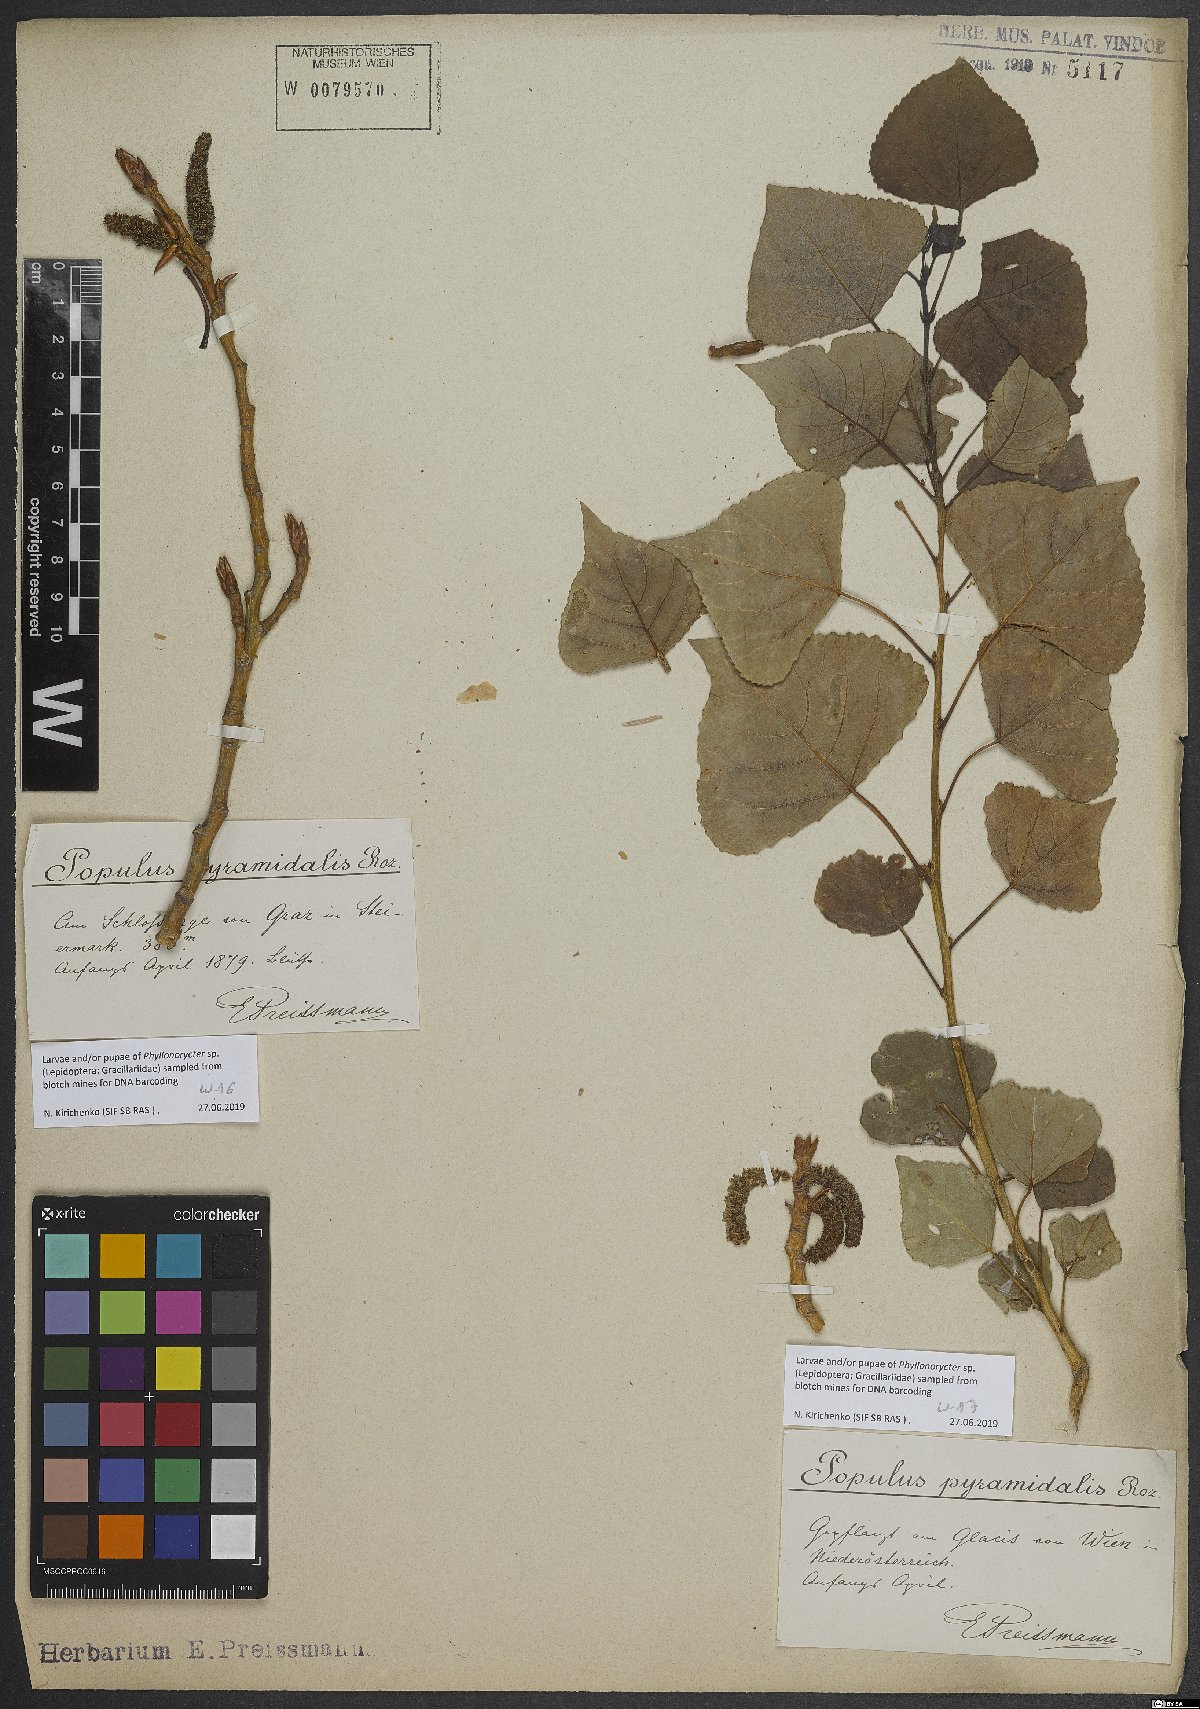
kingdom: Plantae
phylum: Tracheophyta
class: Magnoliopsida
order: Malpighiales
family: Salicaceae
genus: Populus
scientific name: Populus nigra
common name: Black poplar
